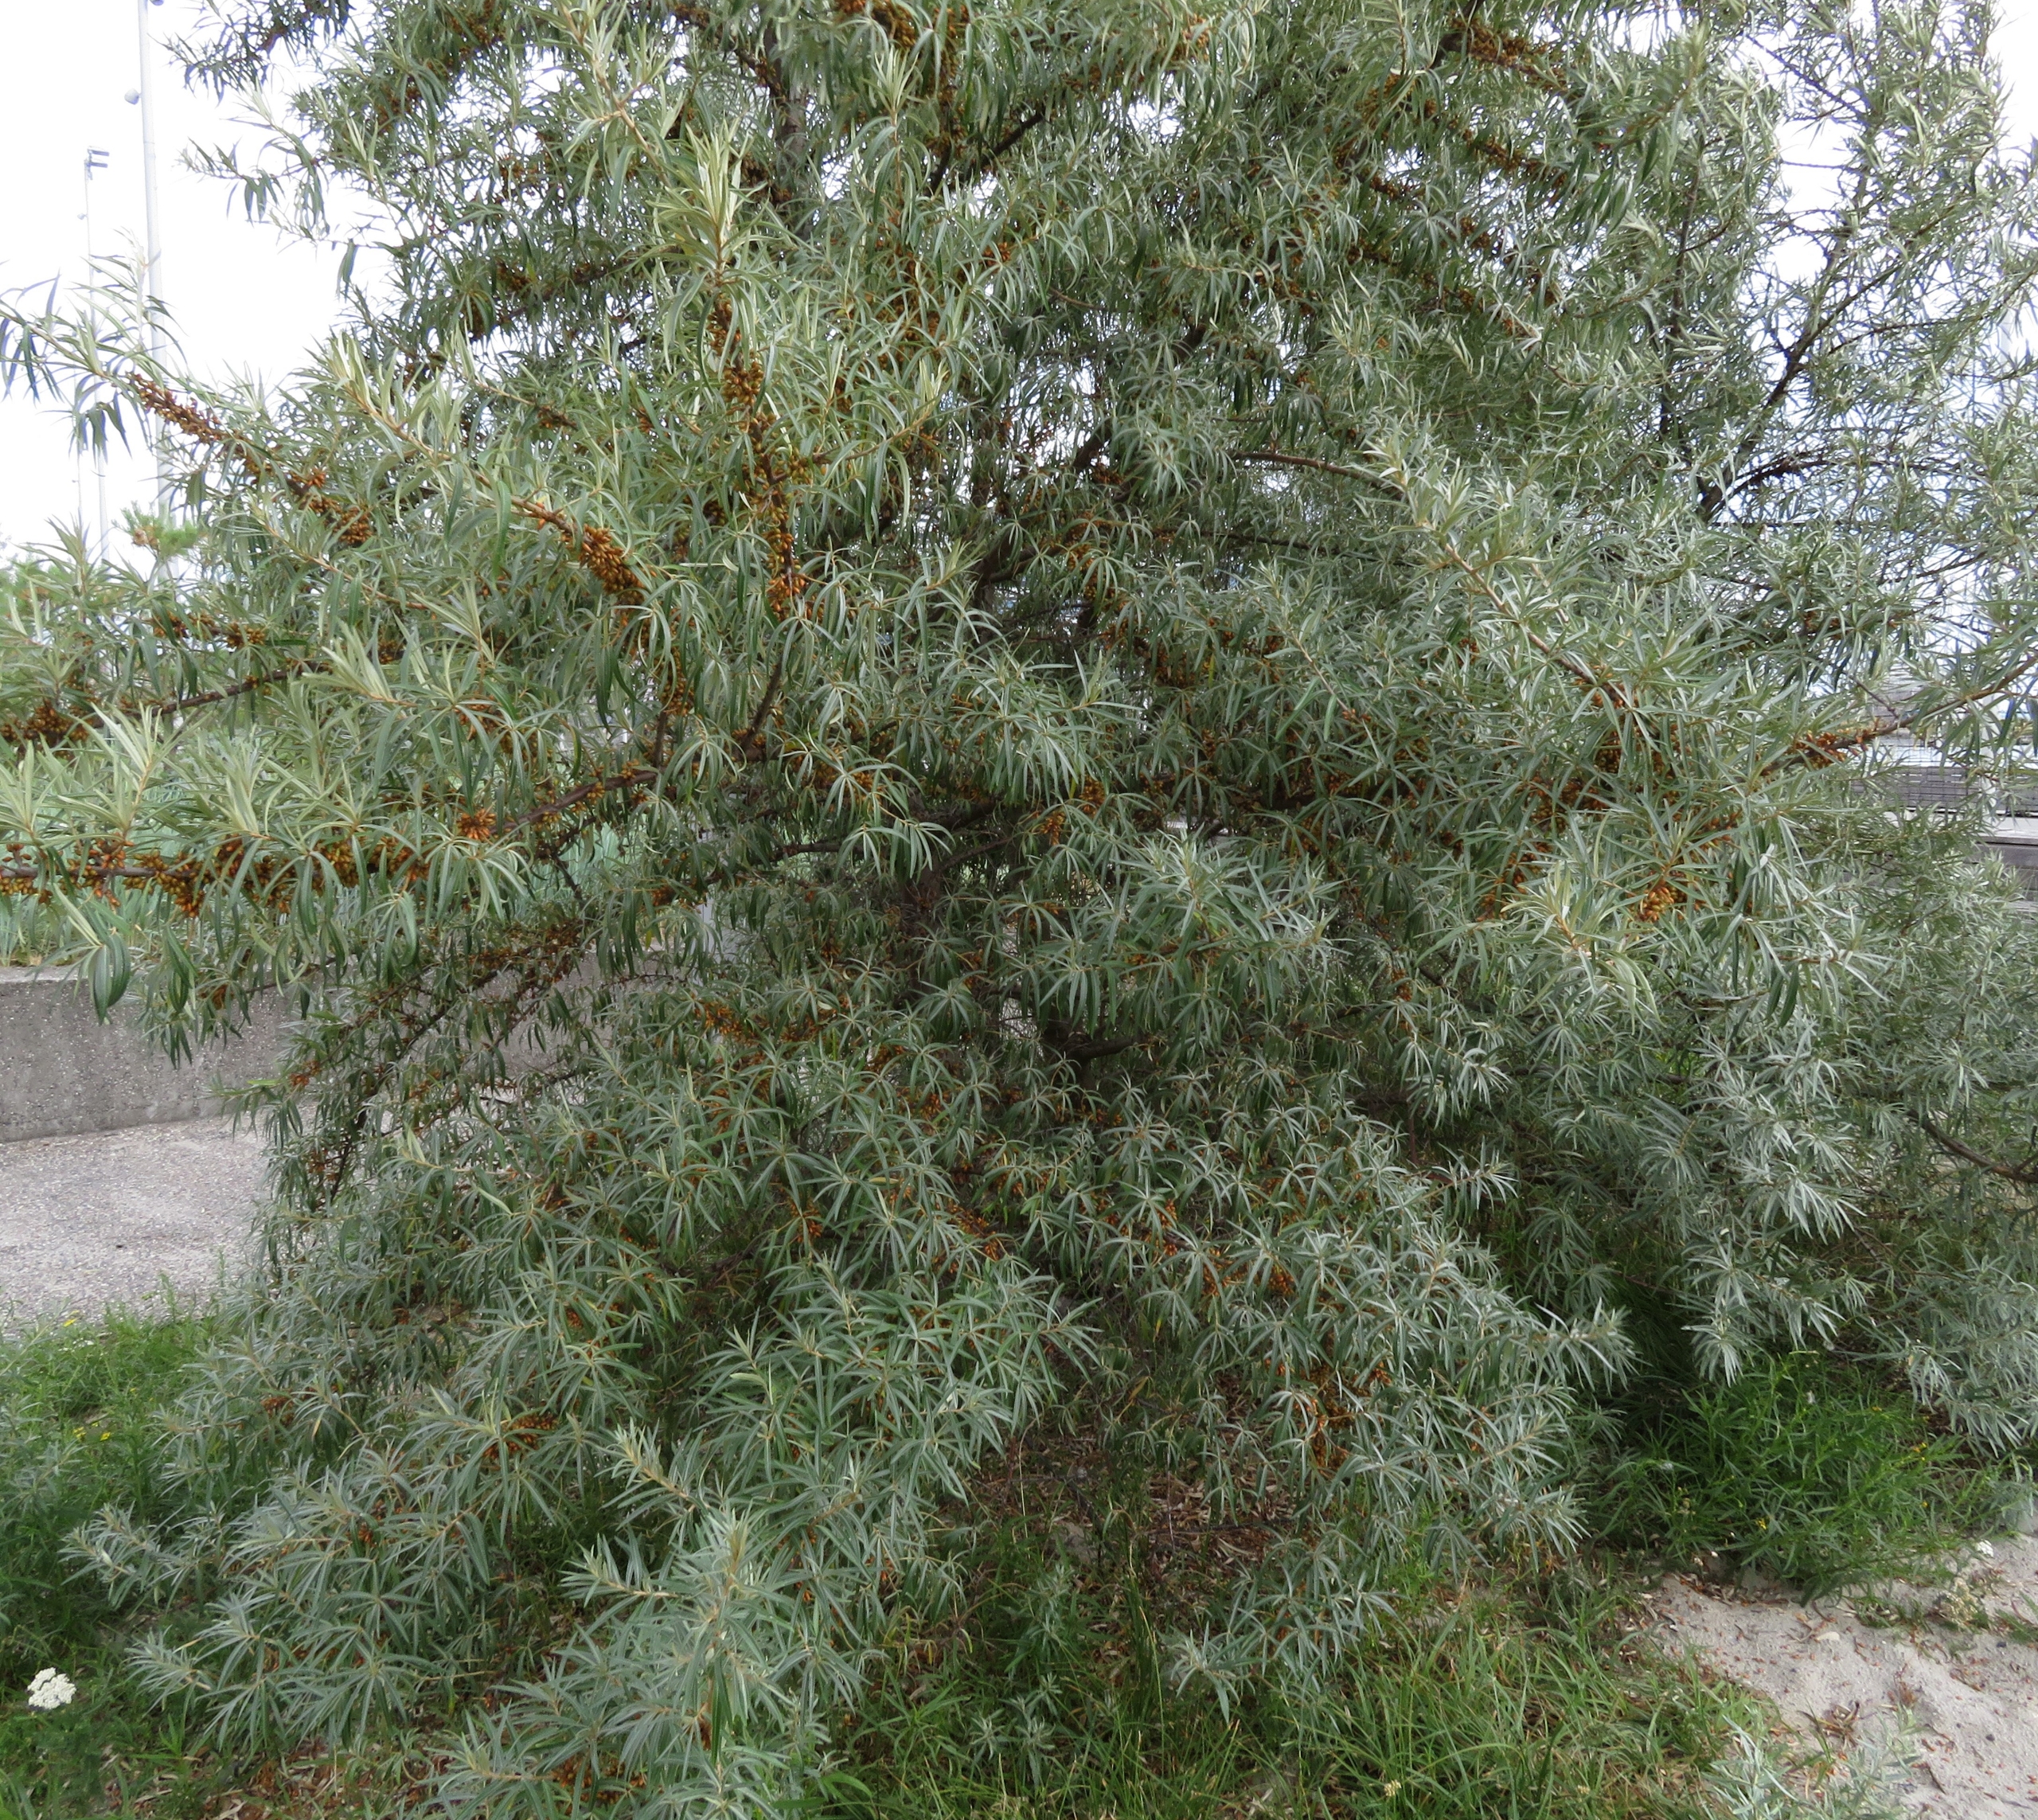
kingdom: Plantae
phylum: Tracheophyta
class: Magnoliopsida
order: Rosales
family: Elaeagnaceae
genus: Hippophae
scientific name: Hippophae rhamnoides
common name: Havtorn
